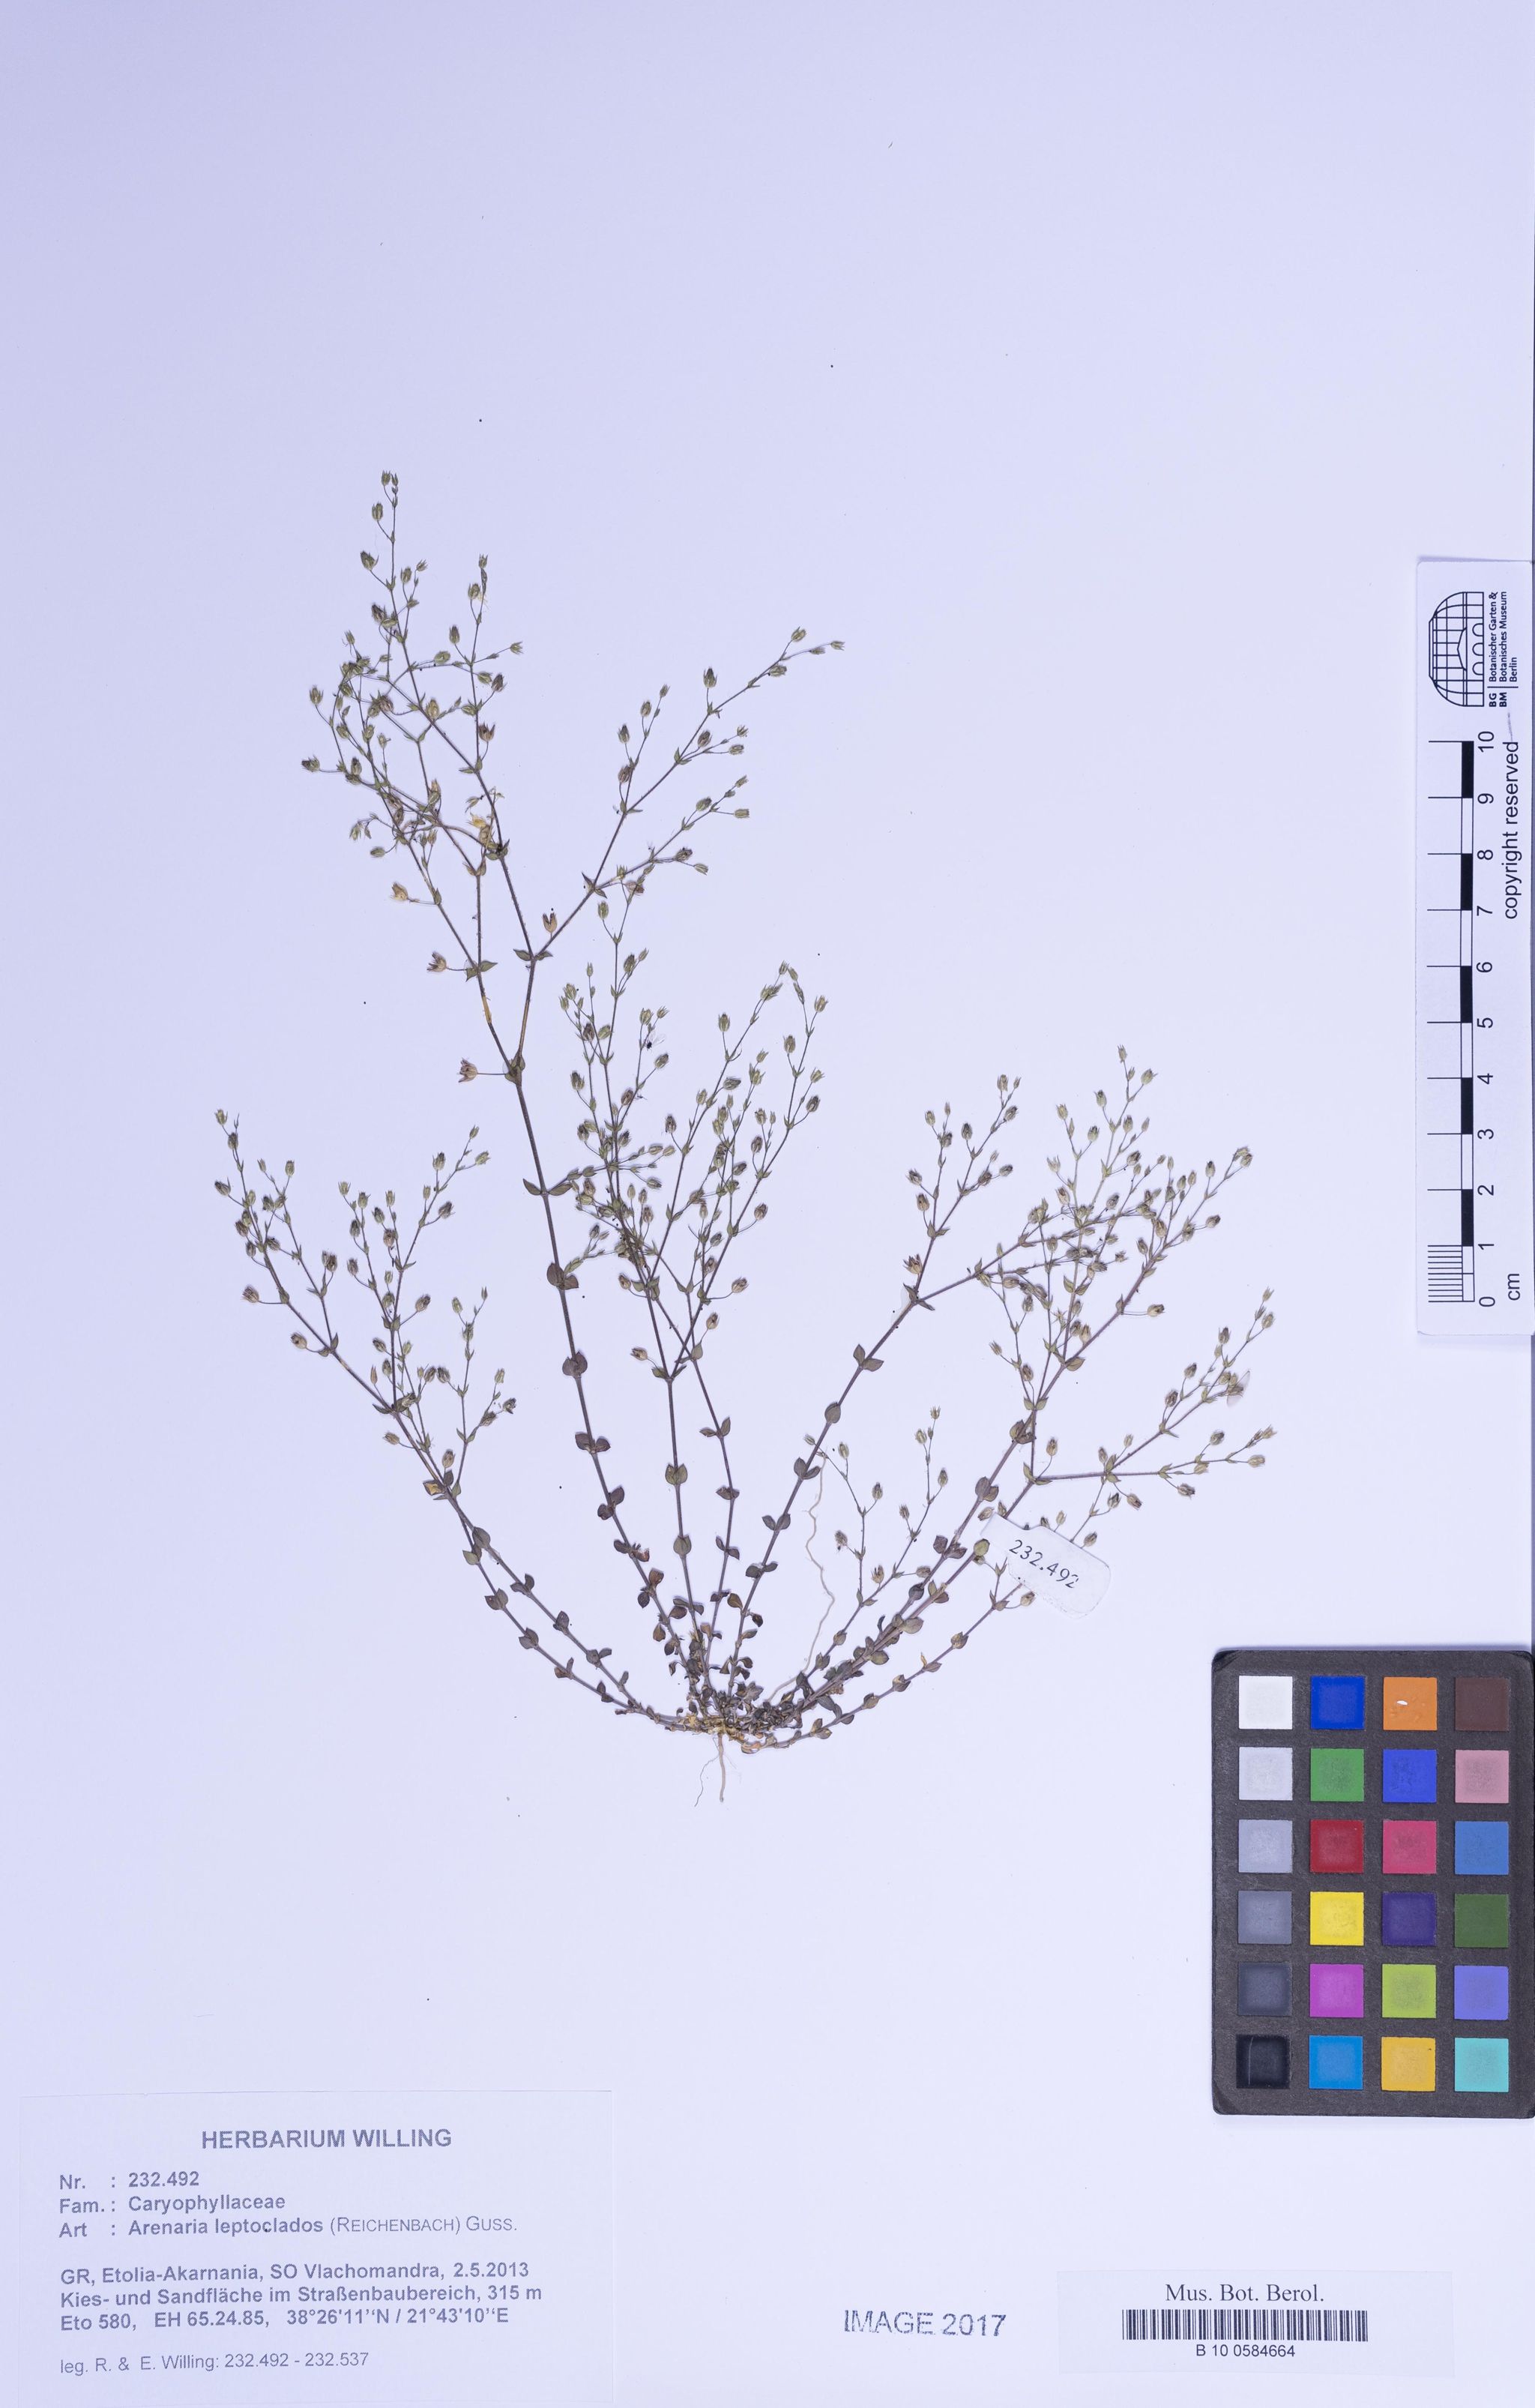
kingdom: Plantae
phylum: Tracheophyta
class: Magnoliopsida
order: Caryophyllales
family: Caryophyllaceae
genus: Arenaria
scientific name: Arenaria leptoclados
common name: Thyme-leaved sandwort
